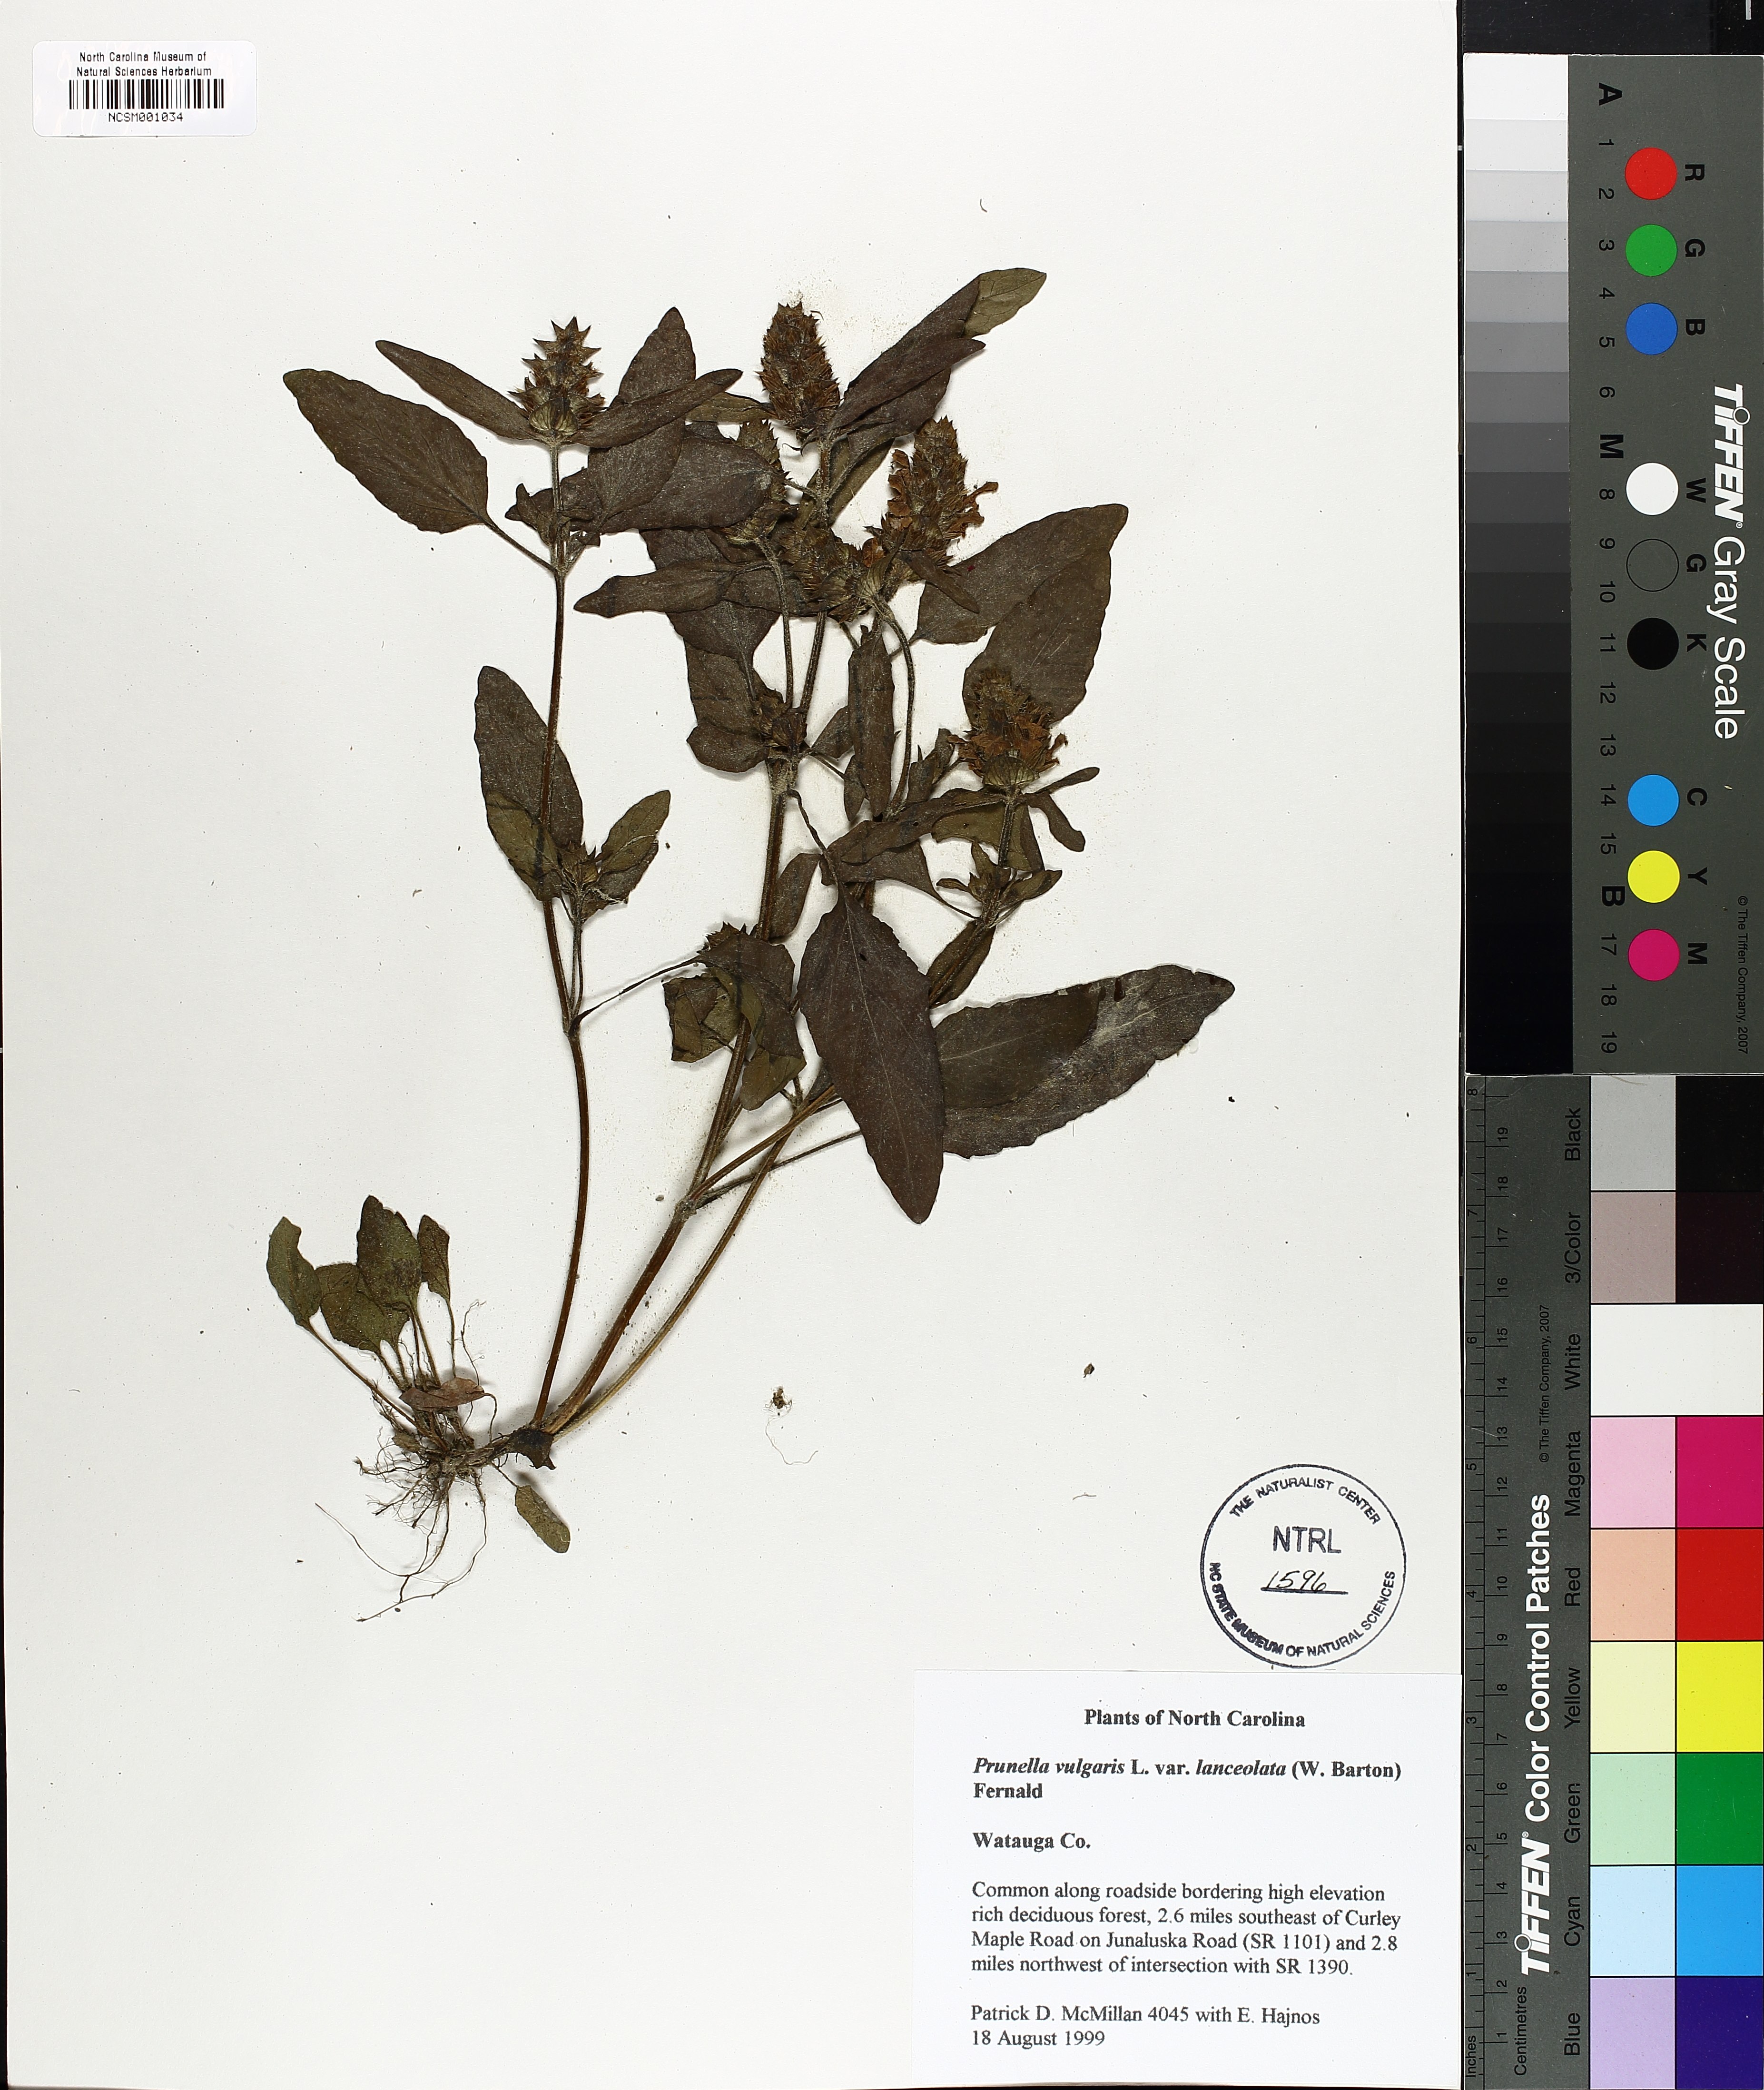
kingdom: Plantae
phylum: Tracheophyta
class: Magnoliopsida
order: Lamiales
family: Lamiaceae
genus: Prunella
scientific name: Prunella vulgaris
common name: Heal-all
